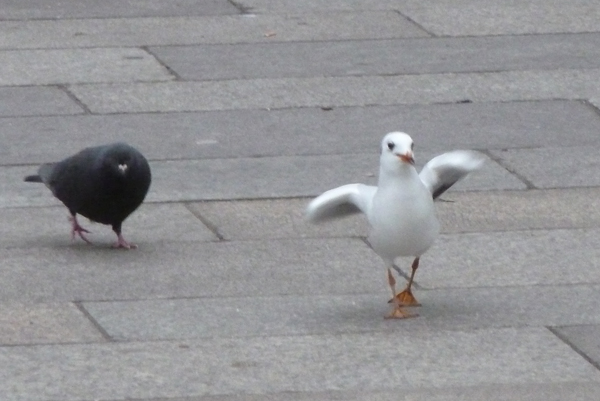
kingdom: Animalia
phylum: Chordata
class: Aves
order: Charadriiformes
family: Laridae
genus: Chroicocephalus
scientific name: Chroicocephalus ridibundus
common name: Black-headed gull
